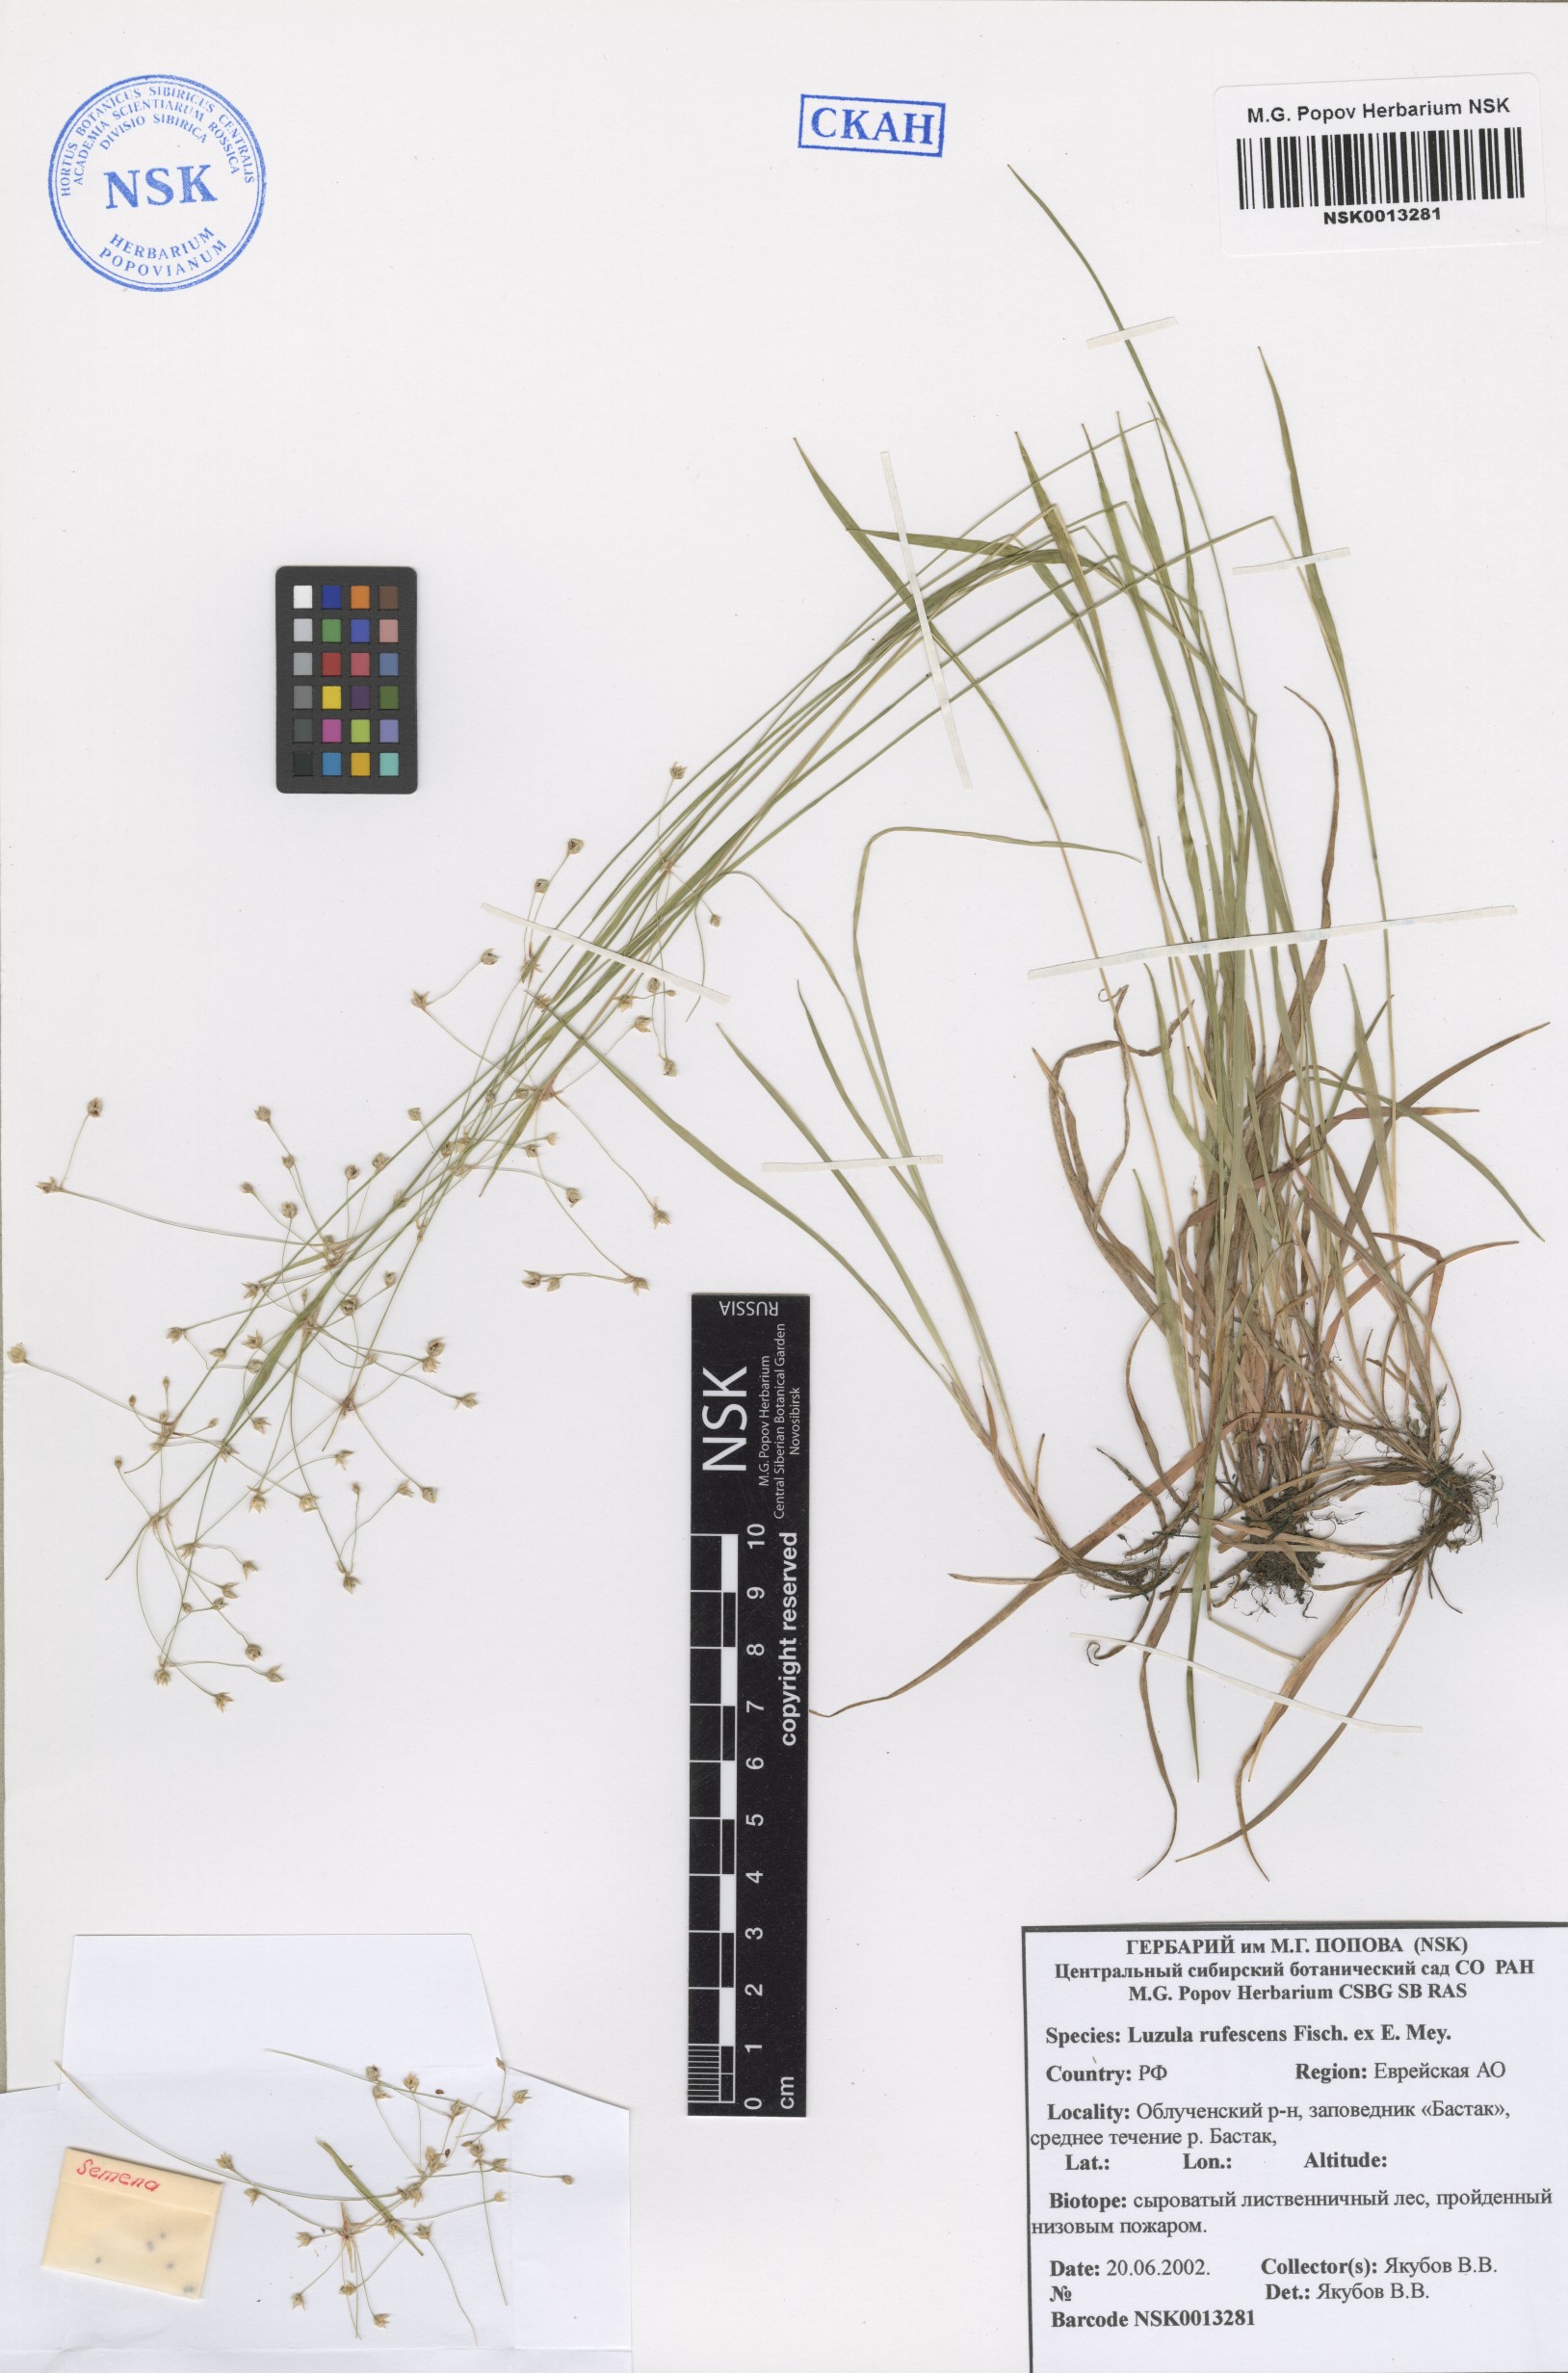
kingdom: Plantae
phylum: Tracheophyta
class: Liliopsida
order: Poales
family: Juncaceae
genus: Luzula
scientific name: Luzula rufescens
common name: Reddish woodrush
